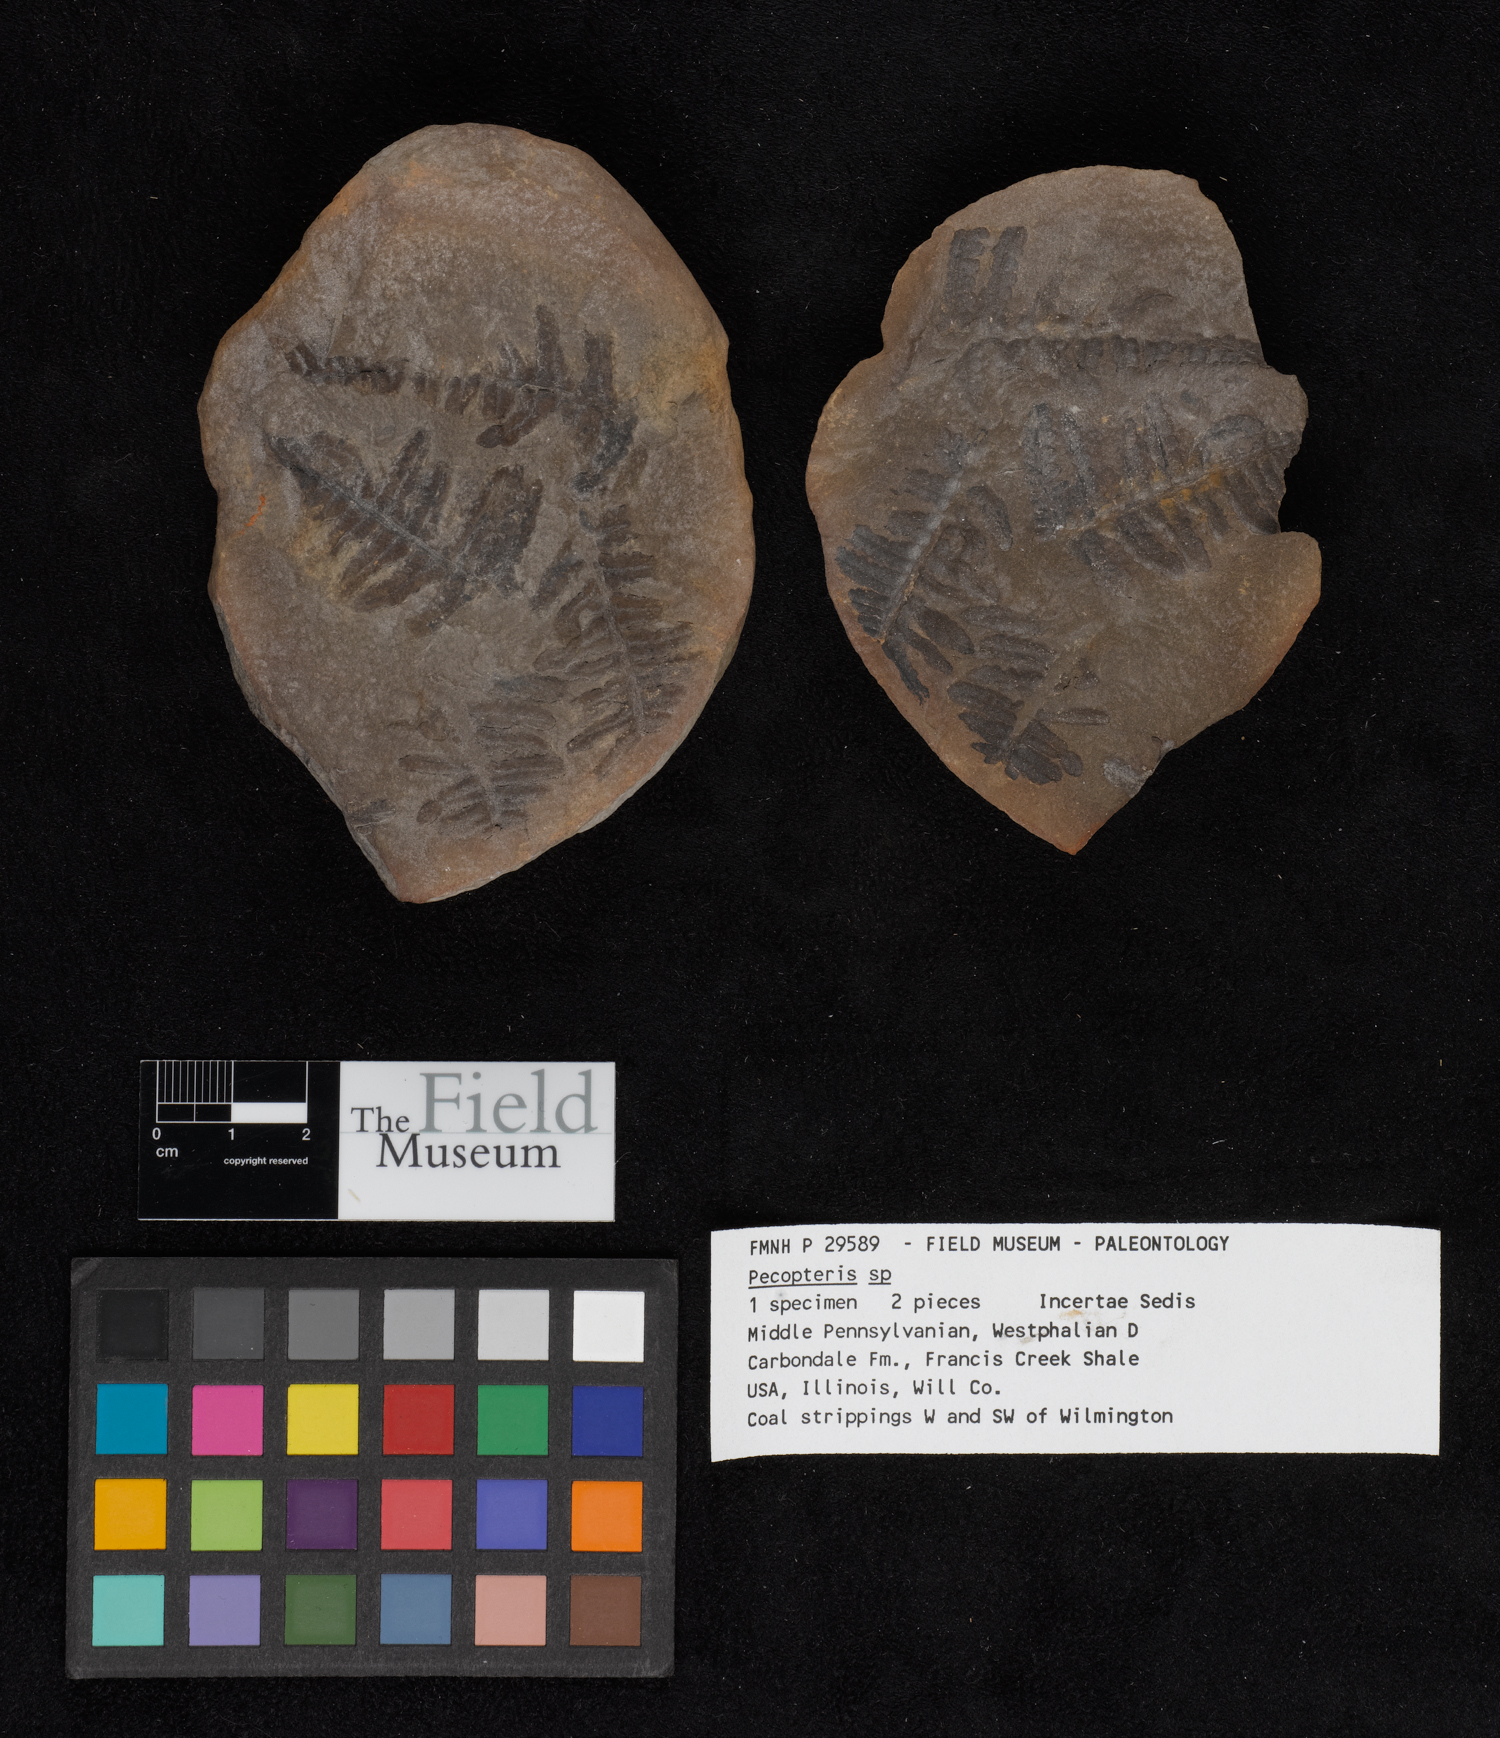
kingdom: Plantae
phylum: Tracheophyta
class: Polypodiopsida
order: Marattiales
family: Asterothecaceae
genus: Pecopteris
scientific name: Pecopteris
